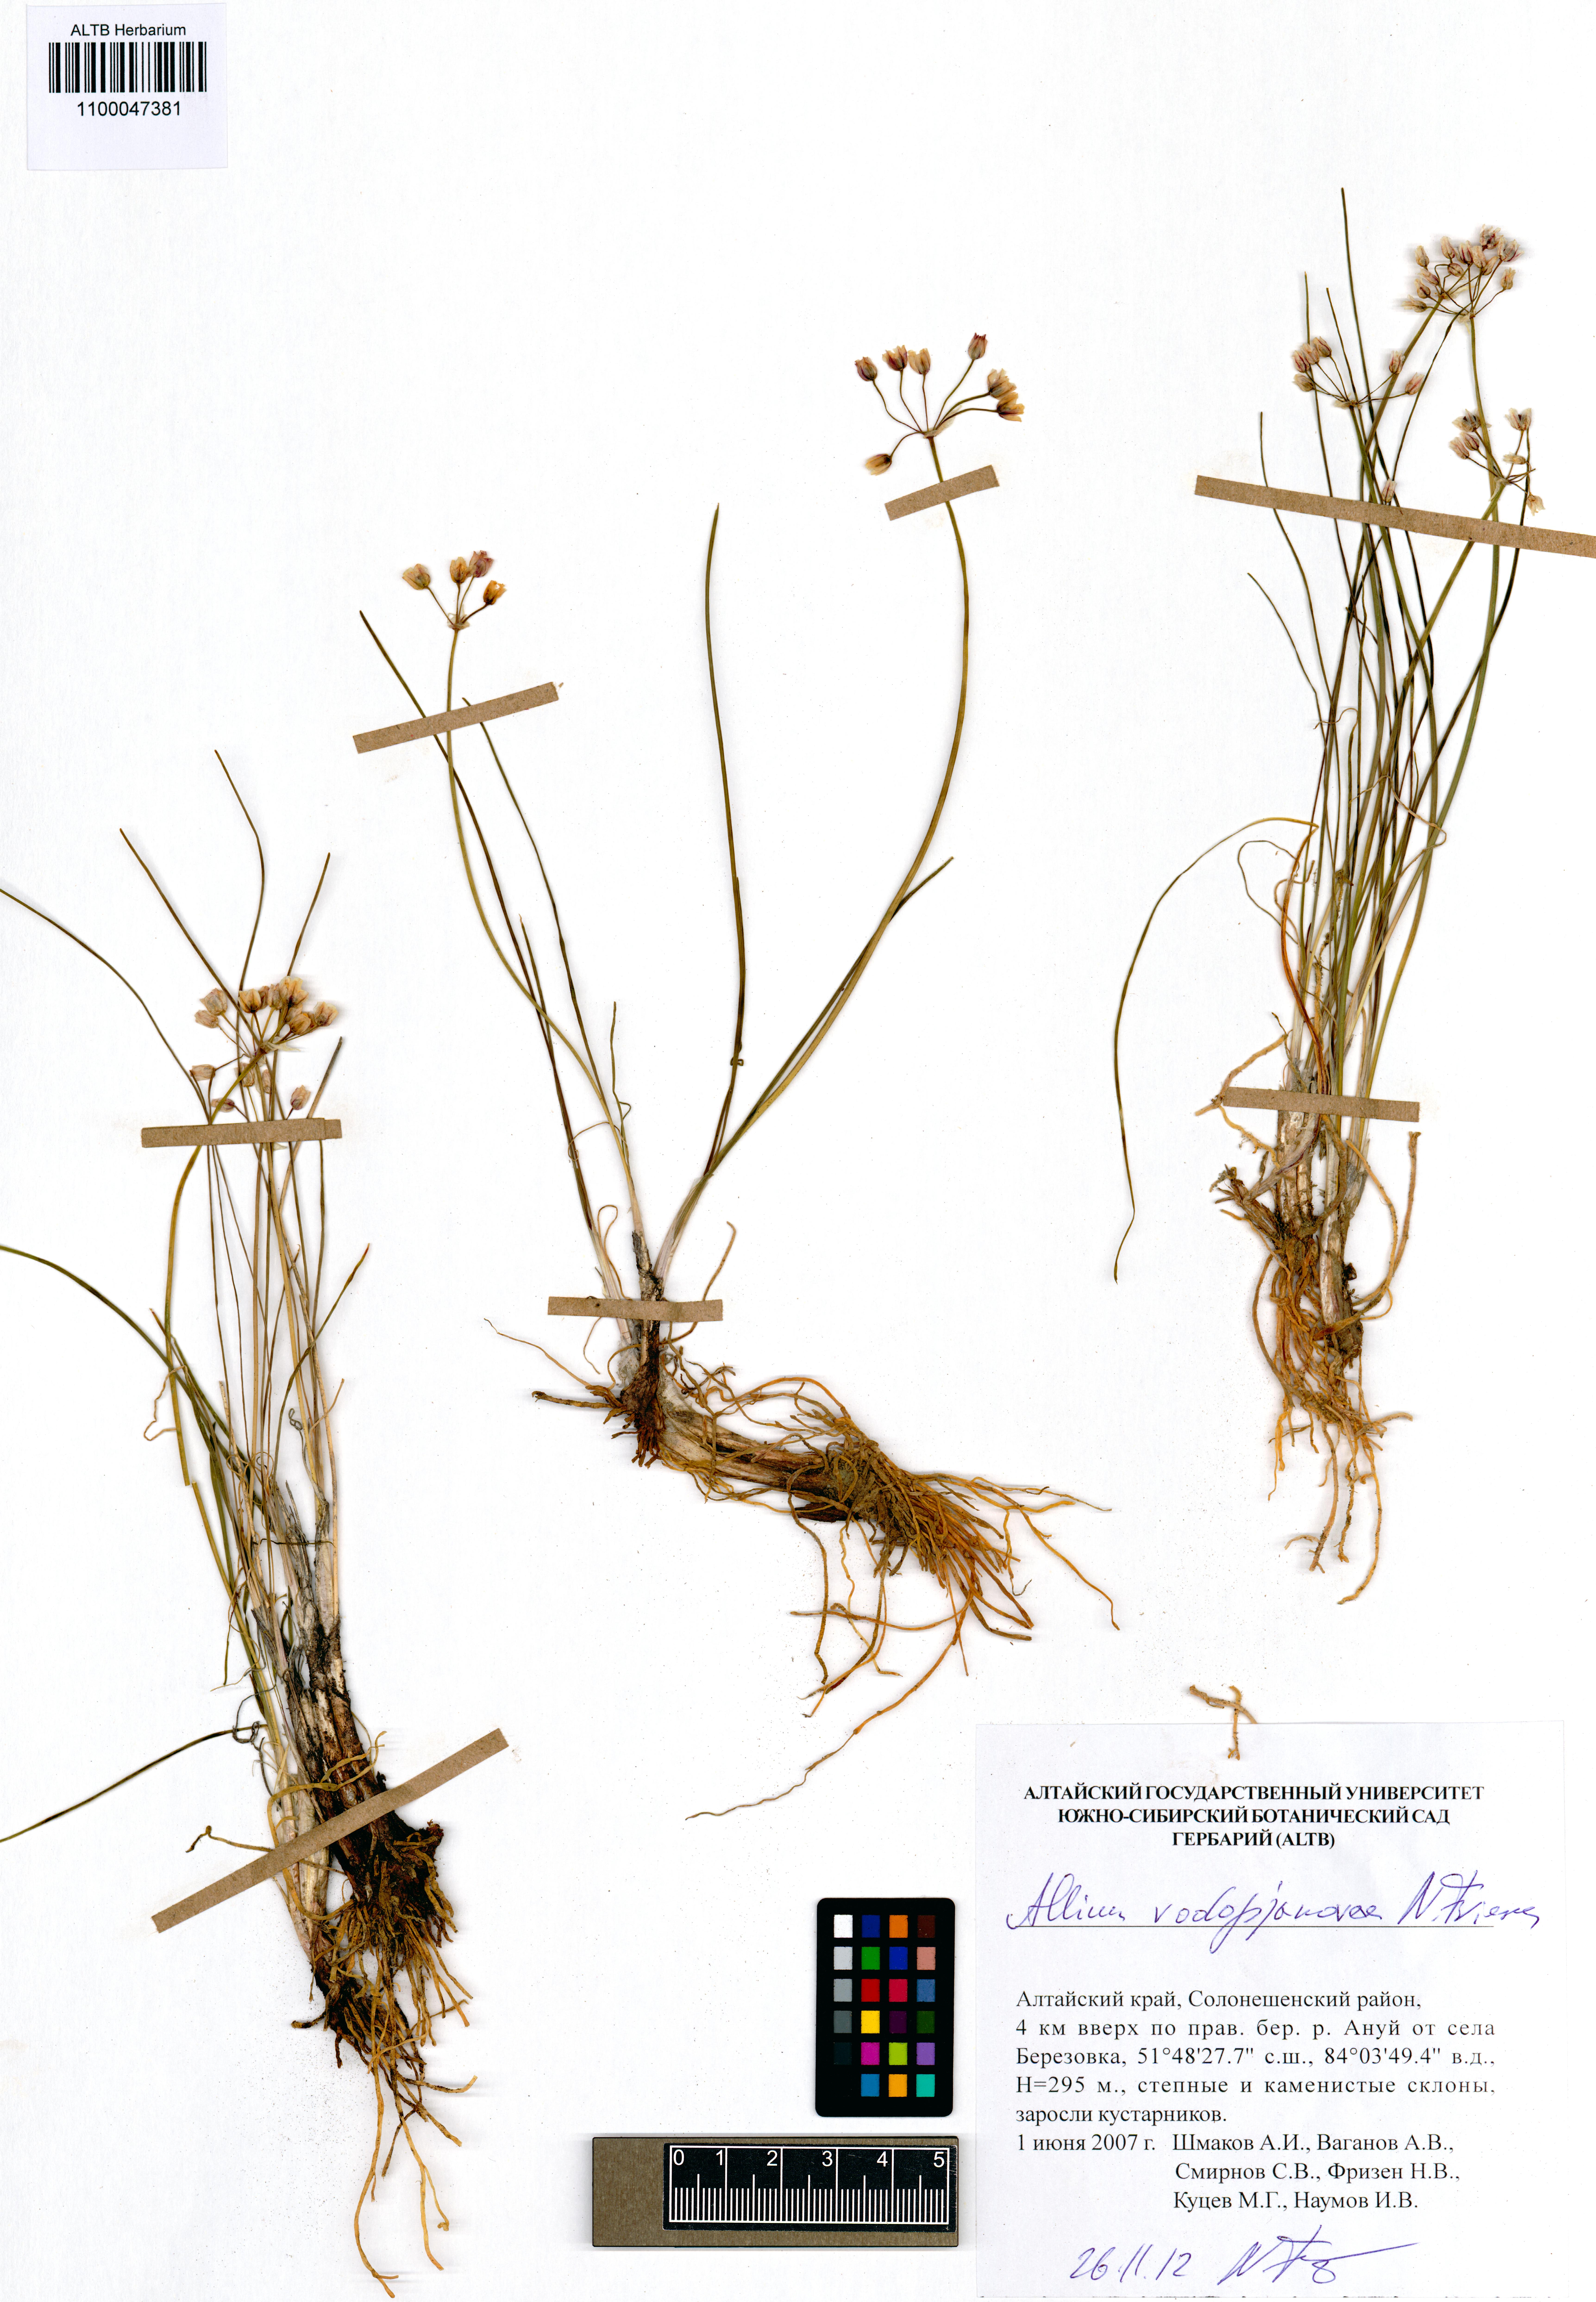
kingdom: Plantae
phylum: Tracheophyta
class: Liliopsida
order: Asparagales
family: Amaryllidaceae
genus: Allium
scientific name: Allium vodopjanovae
